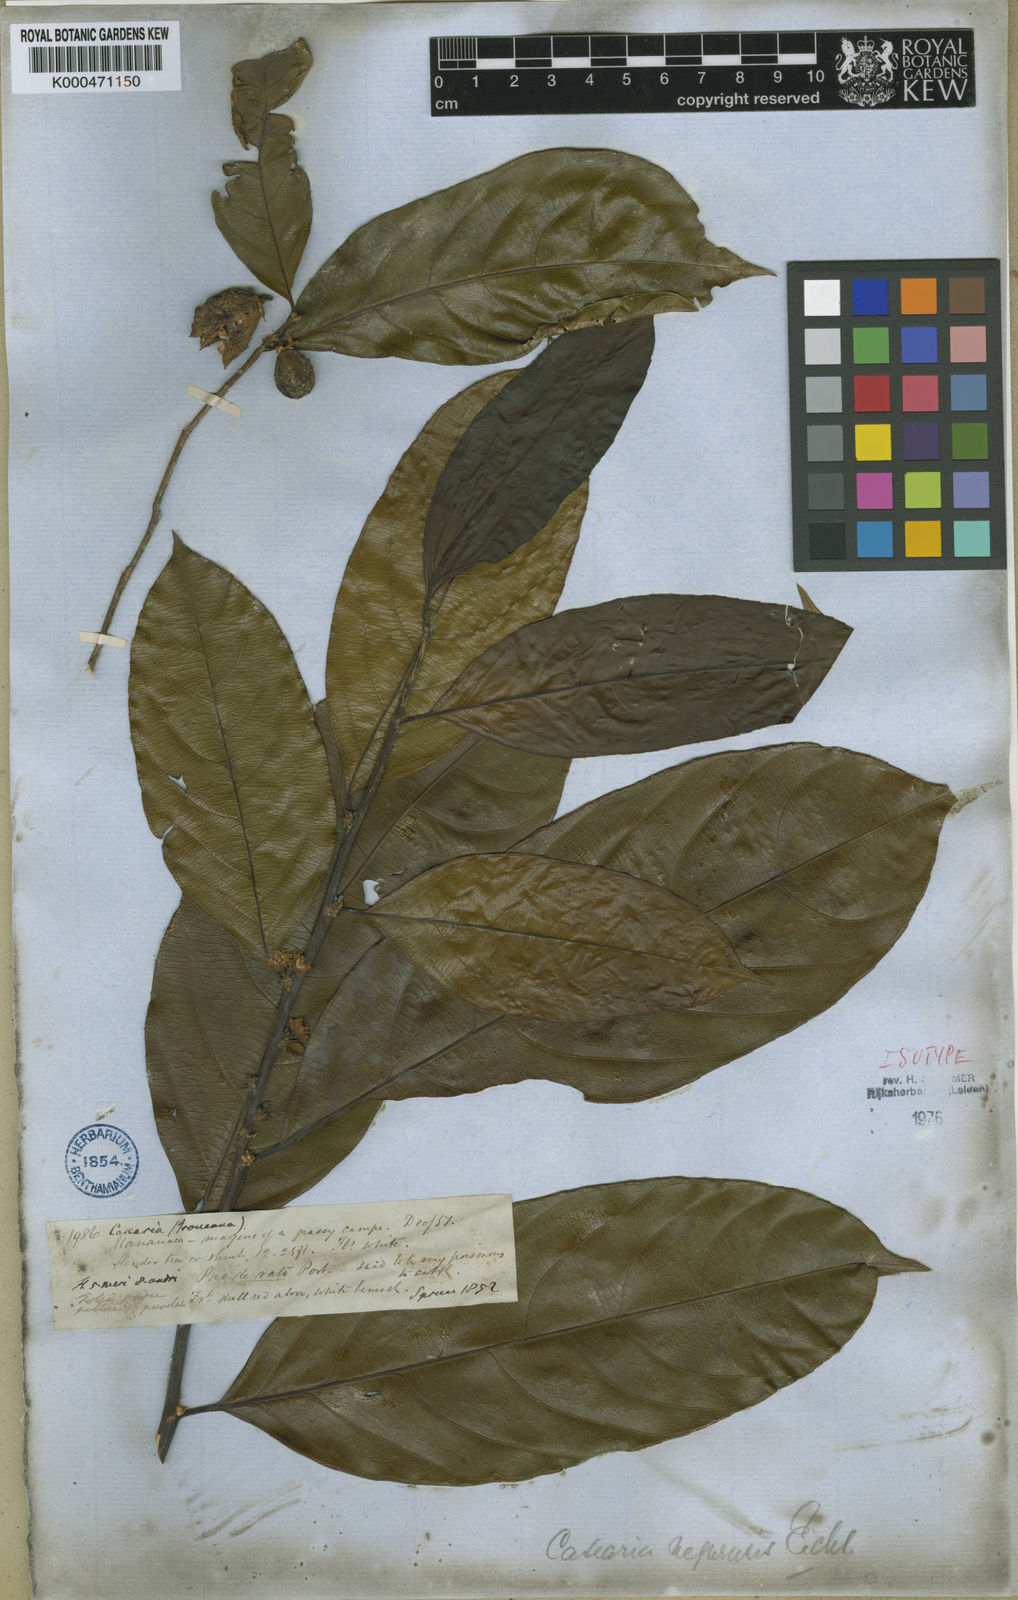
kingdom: Plantae
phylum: Tracheophyta
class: Magnoliopsida
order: Malpighiales
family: Salicaceae
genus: Casearia
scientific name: Casearia negrensis
